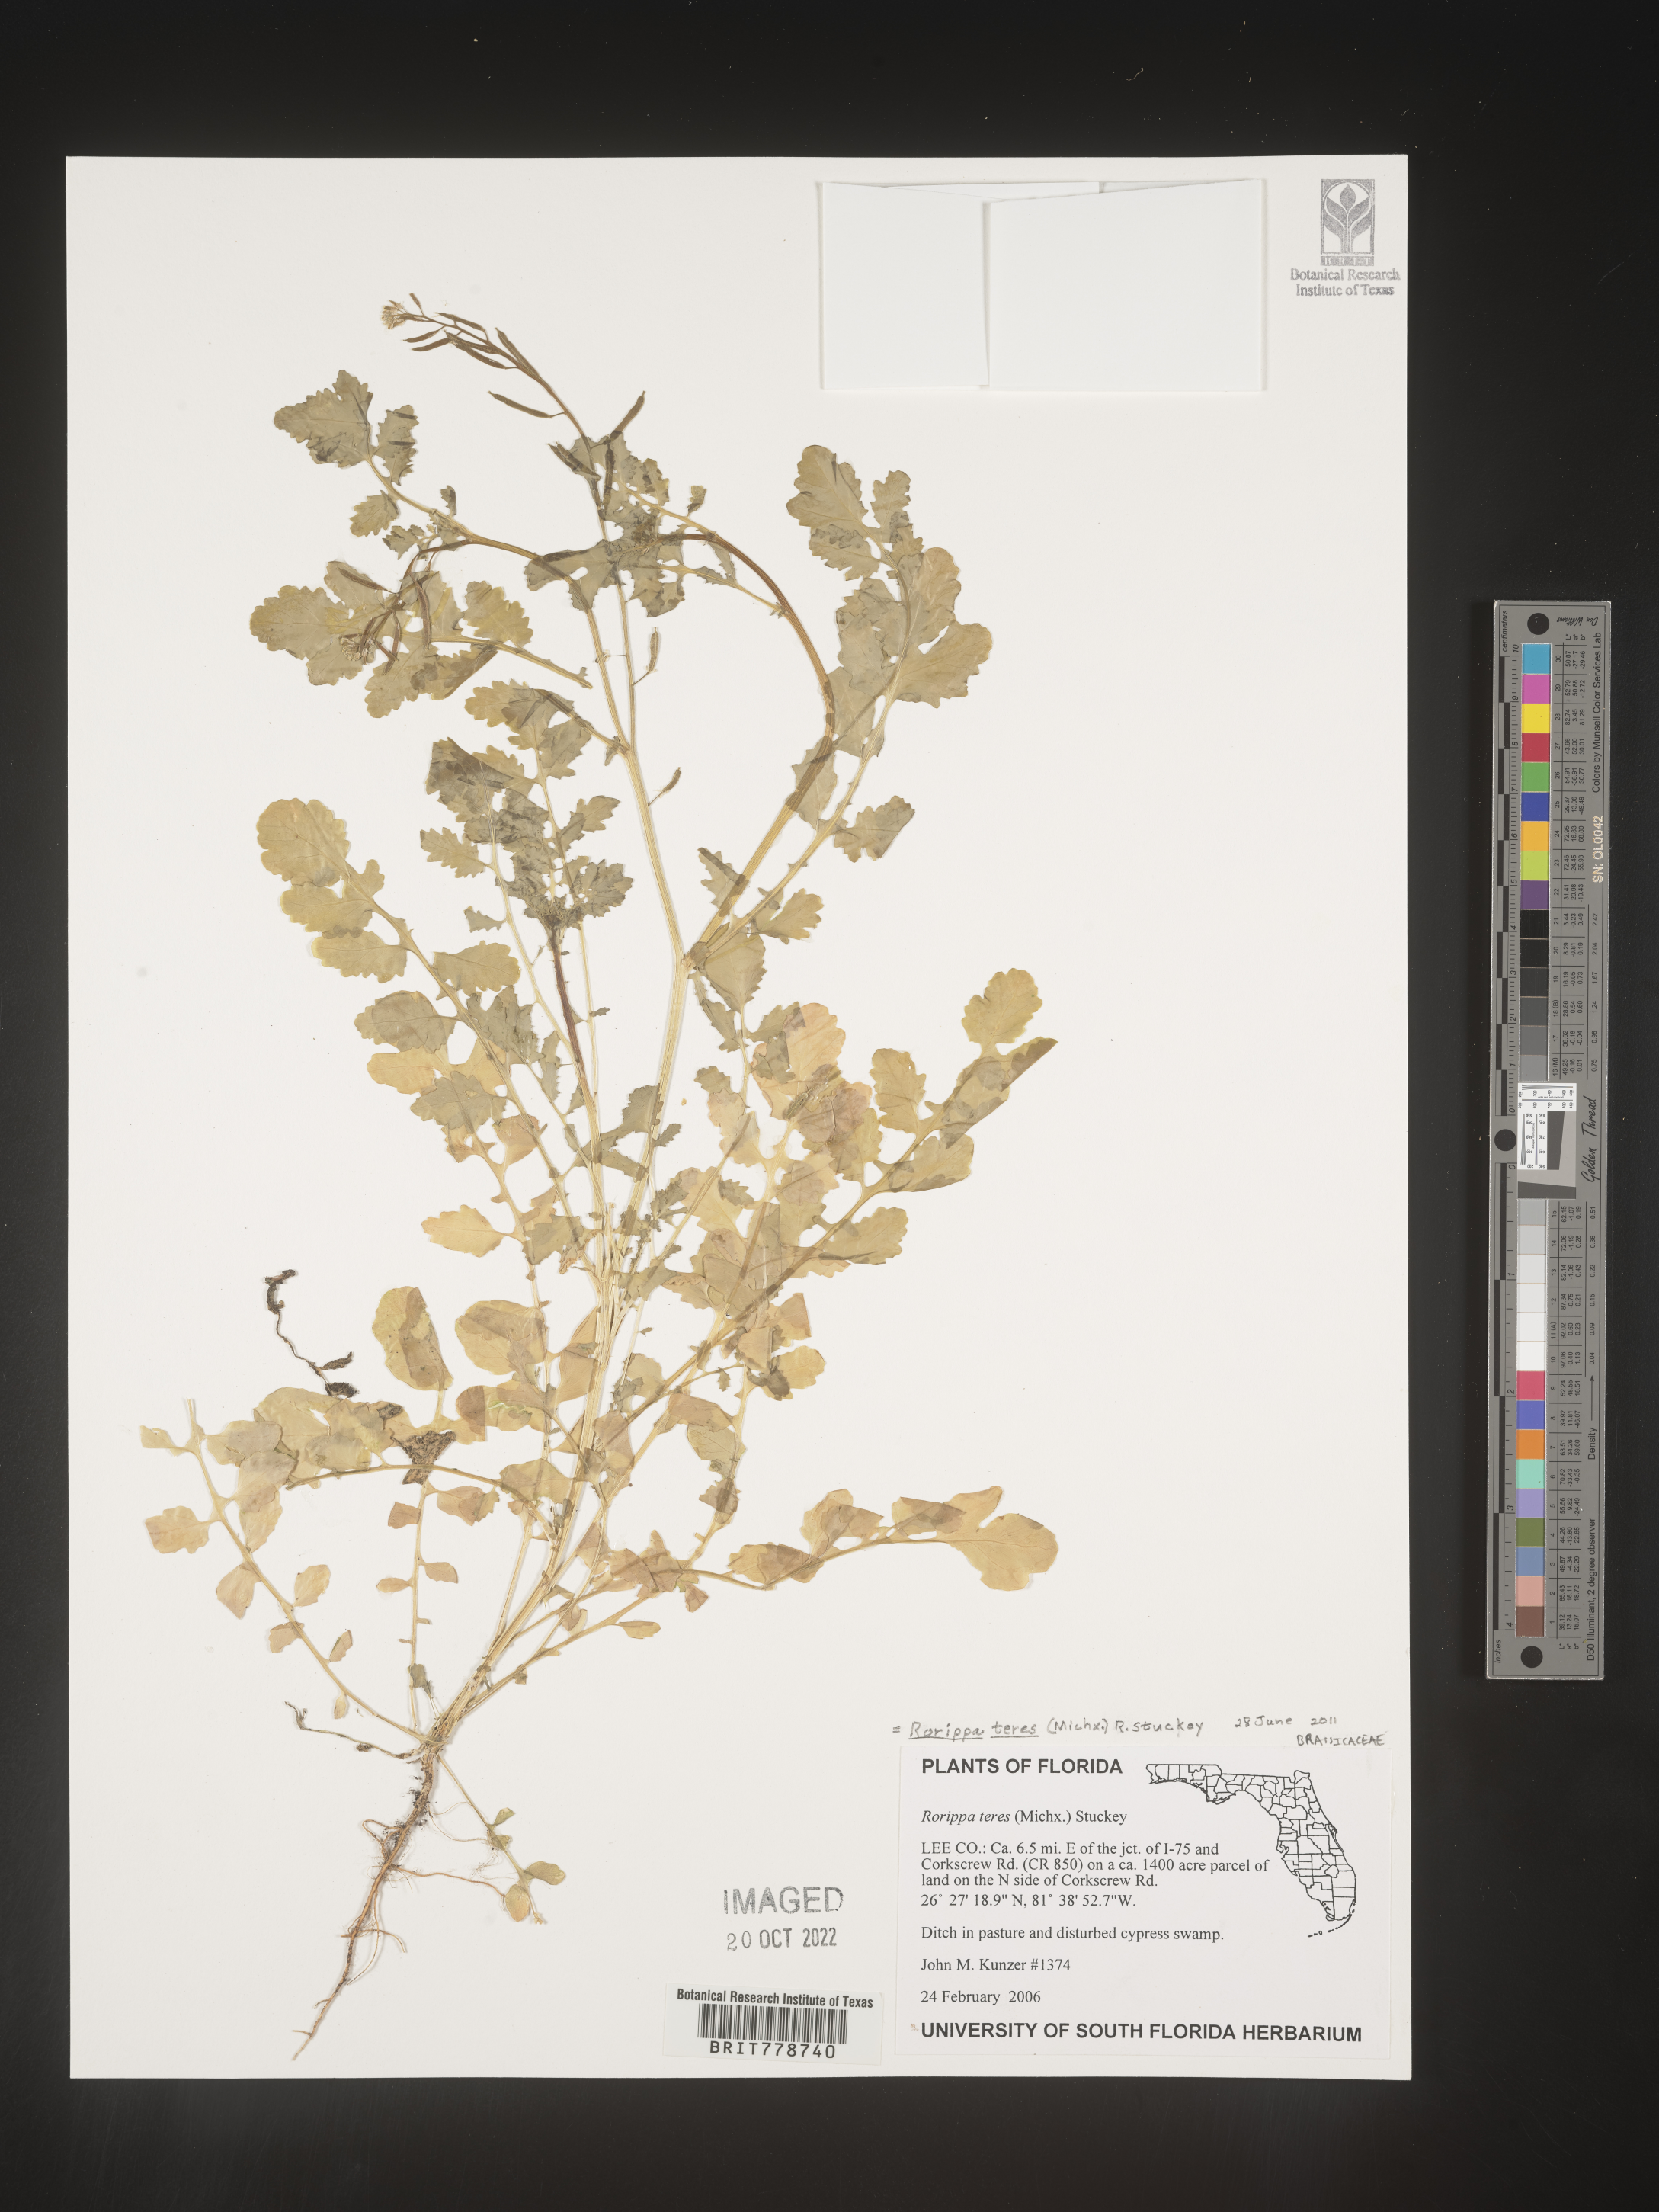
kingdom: Plantae
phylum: Tracheophyta
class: Magnoliopsida
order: Brassicales
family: Brassicaceae
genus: Rorippa
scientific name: Rorippa teres
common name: Southern marsh yellowcress
